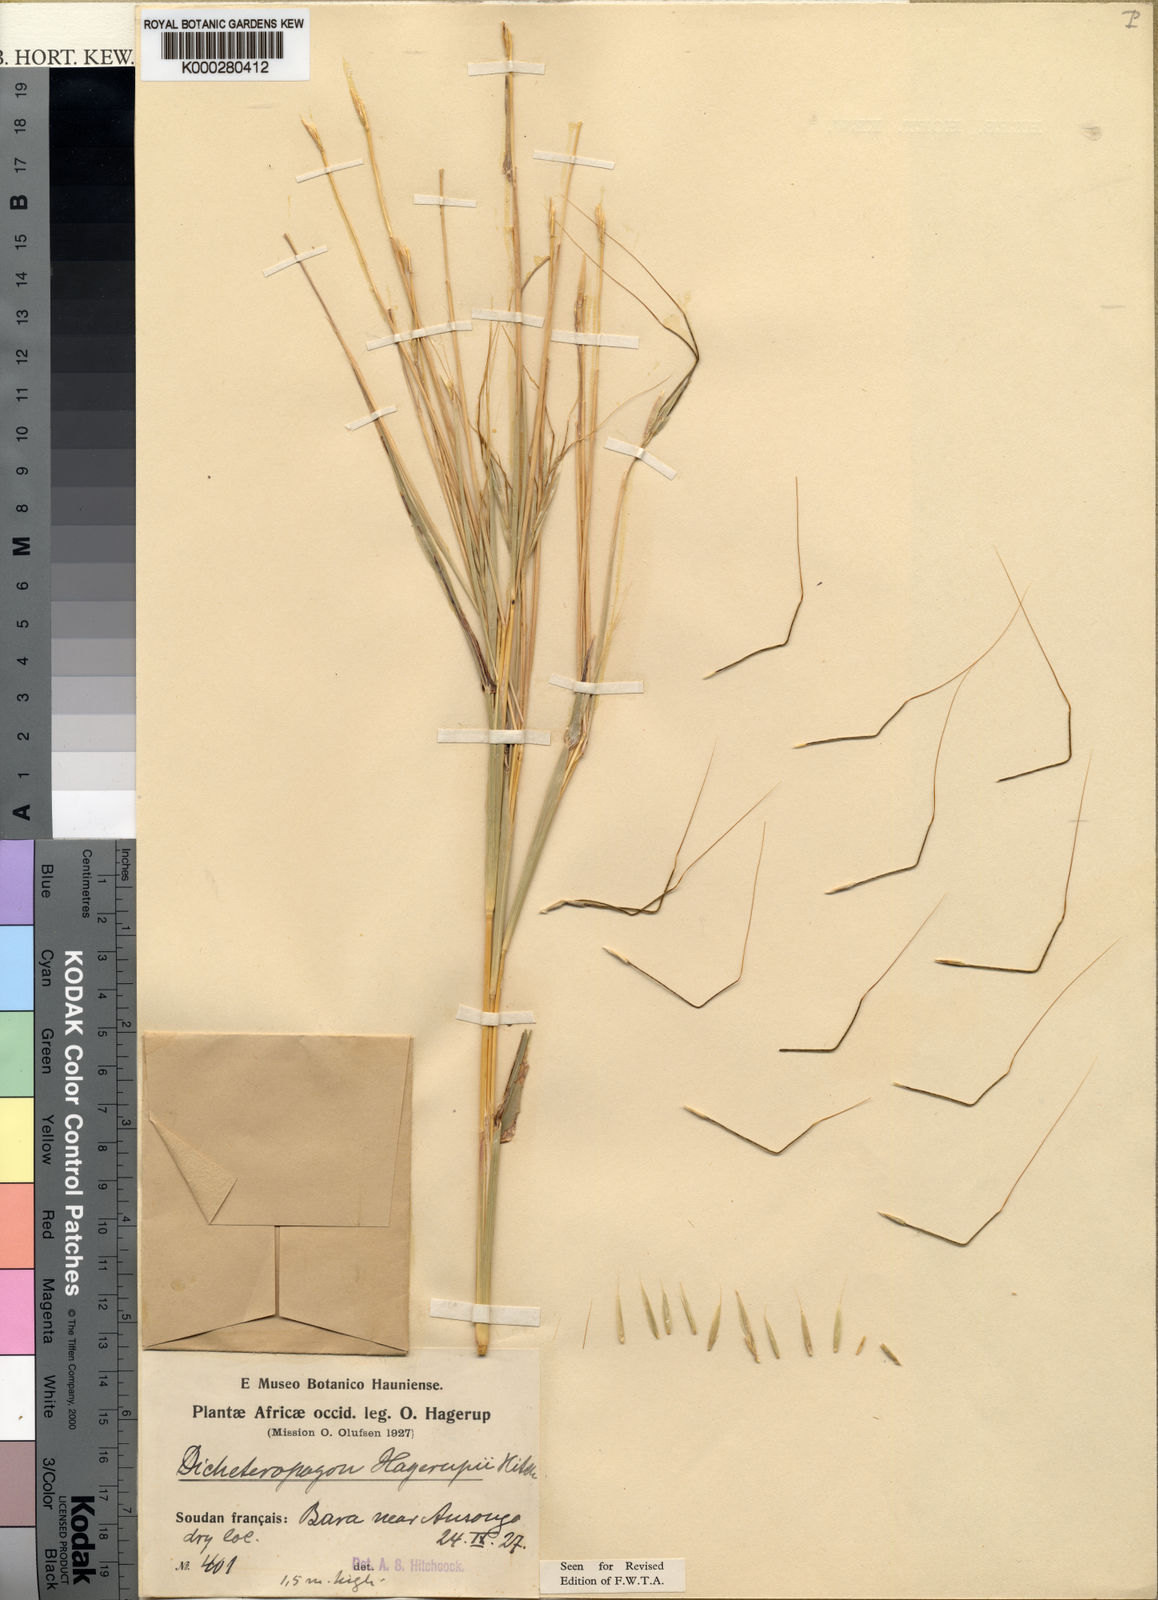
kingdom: Plantae
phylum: Tracheophyta
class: Liliopsida
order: Poales
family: Poaceae
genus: Diheteropogon
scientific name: Diheteropogon hagerupii
